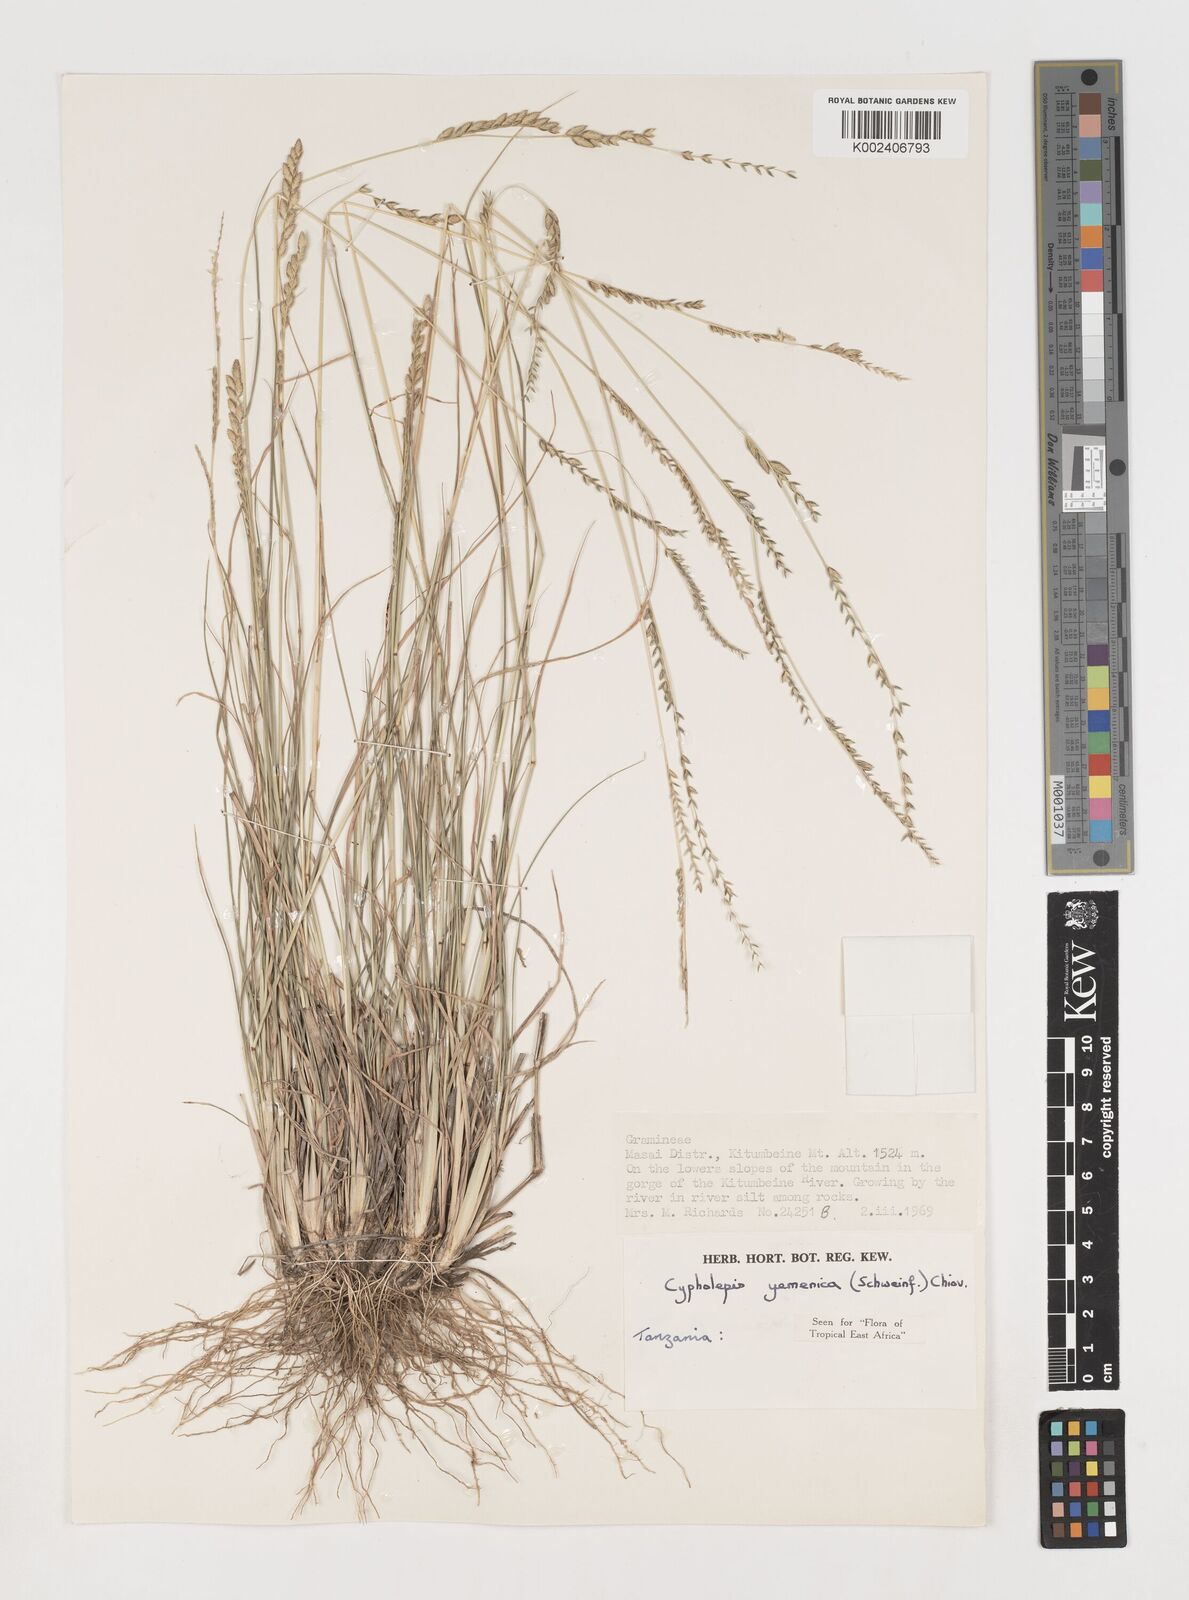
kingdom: Plantae
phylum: Tracheophyta
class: Liliopsida
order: Poales
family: Poaceae
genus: Disakisperma
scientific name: Disakisperma yemenicum
